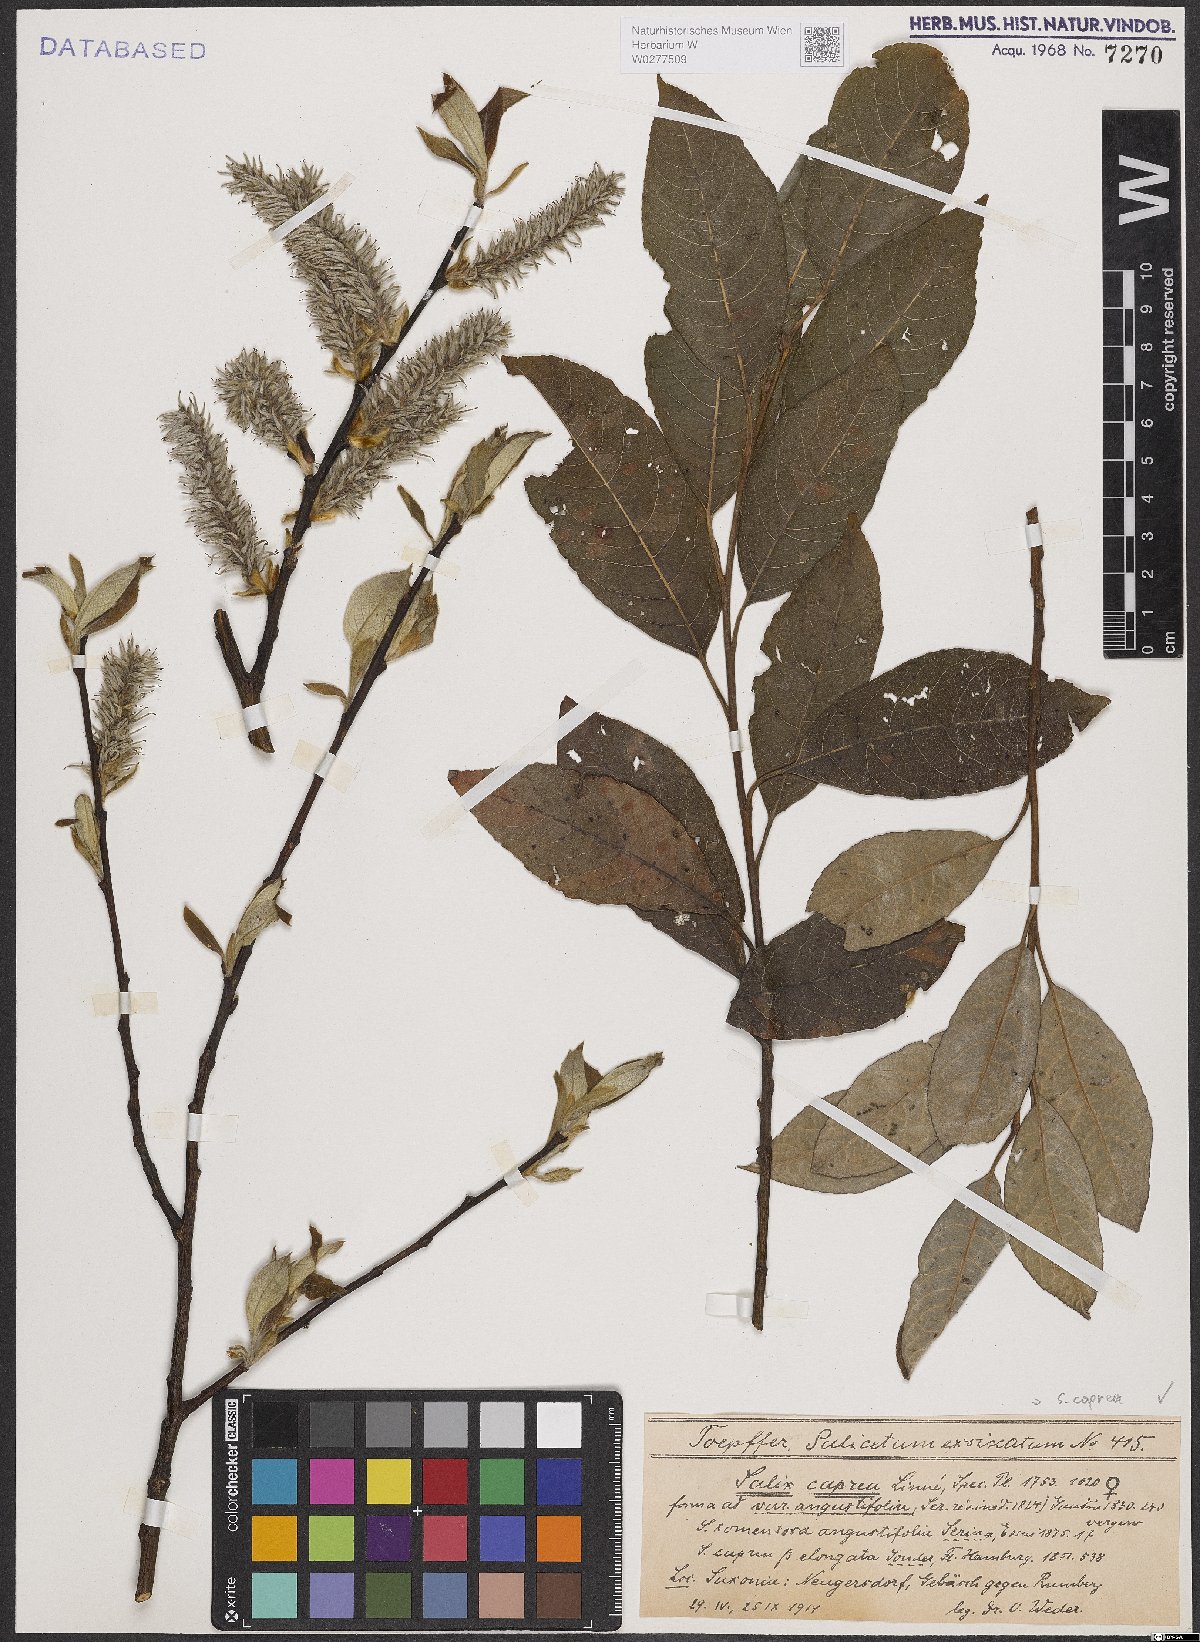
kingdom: Plantae
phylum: Tracheophyta
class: Magnoliopsida
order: Malpighiales
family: Salicaceae
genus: Salix
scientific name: Salix caprea
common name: Goat willow
